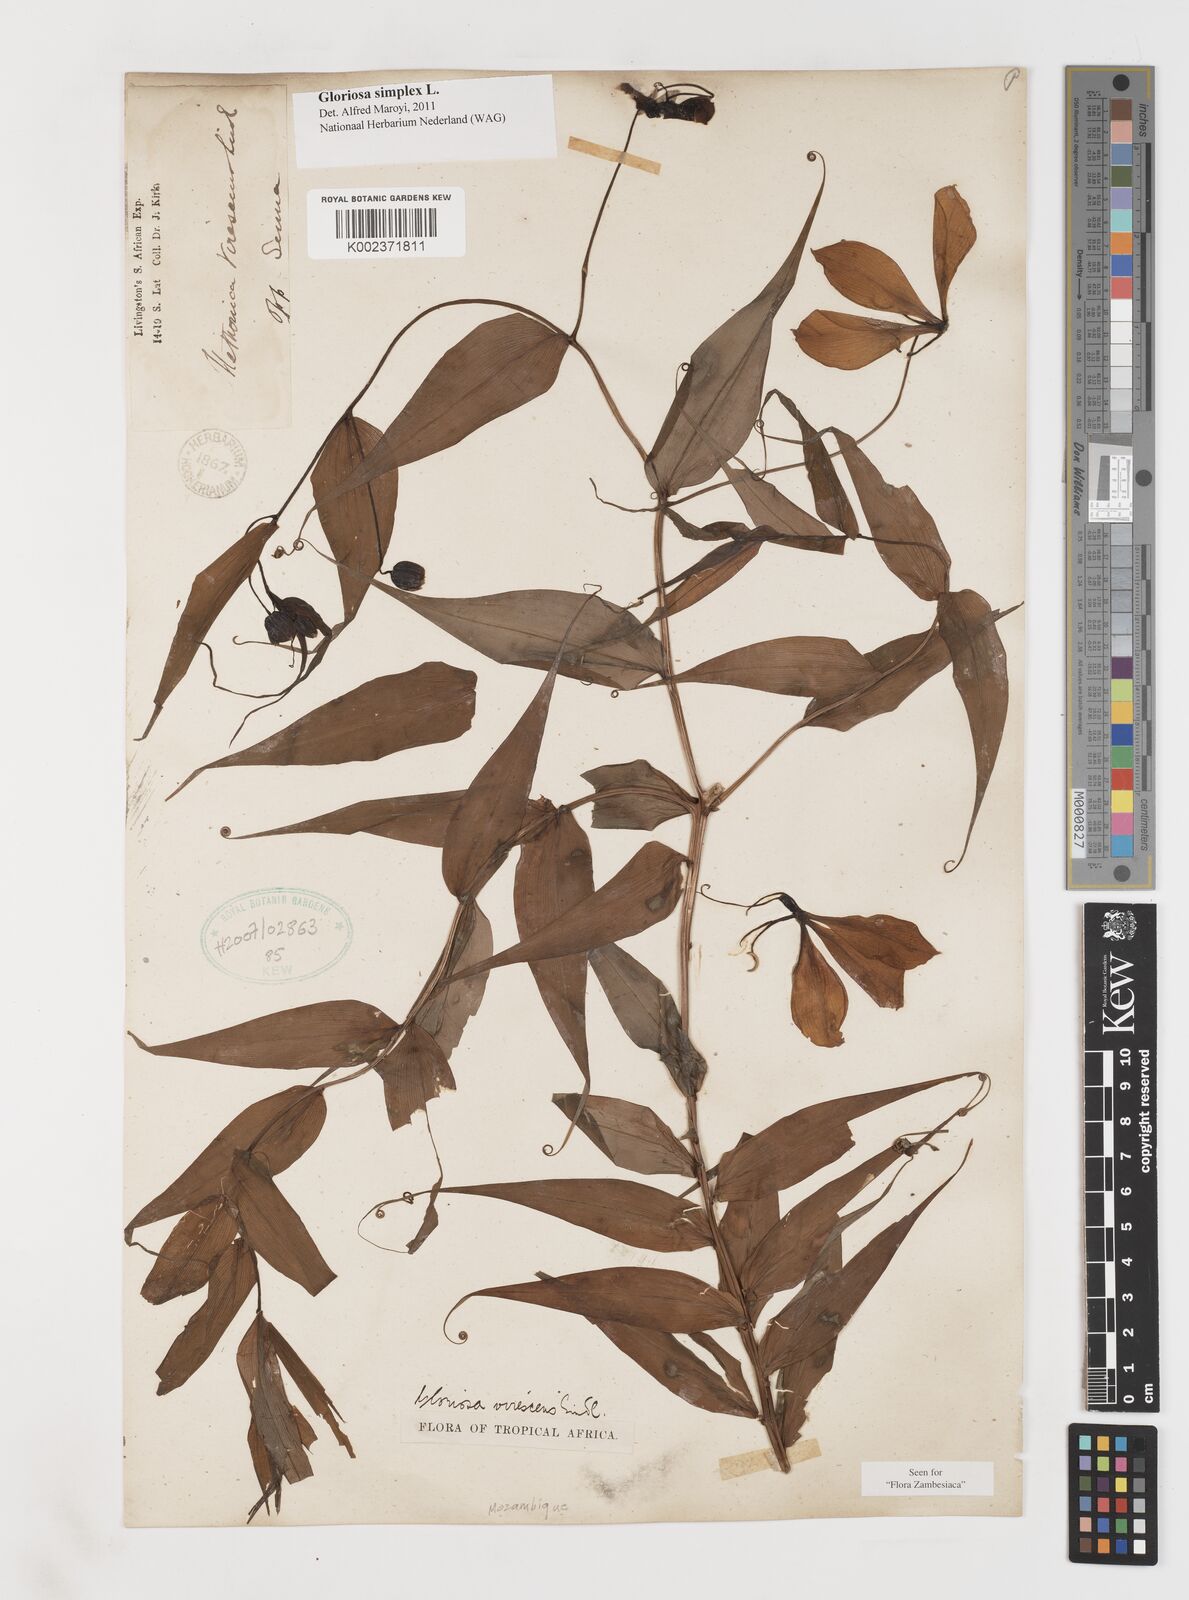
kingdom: Plantae
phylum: Tracheophyta
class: Liliopsida
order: Liliales
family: Colchicaceae
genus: Gloriosa
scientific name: Gloriosa simplex
